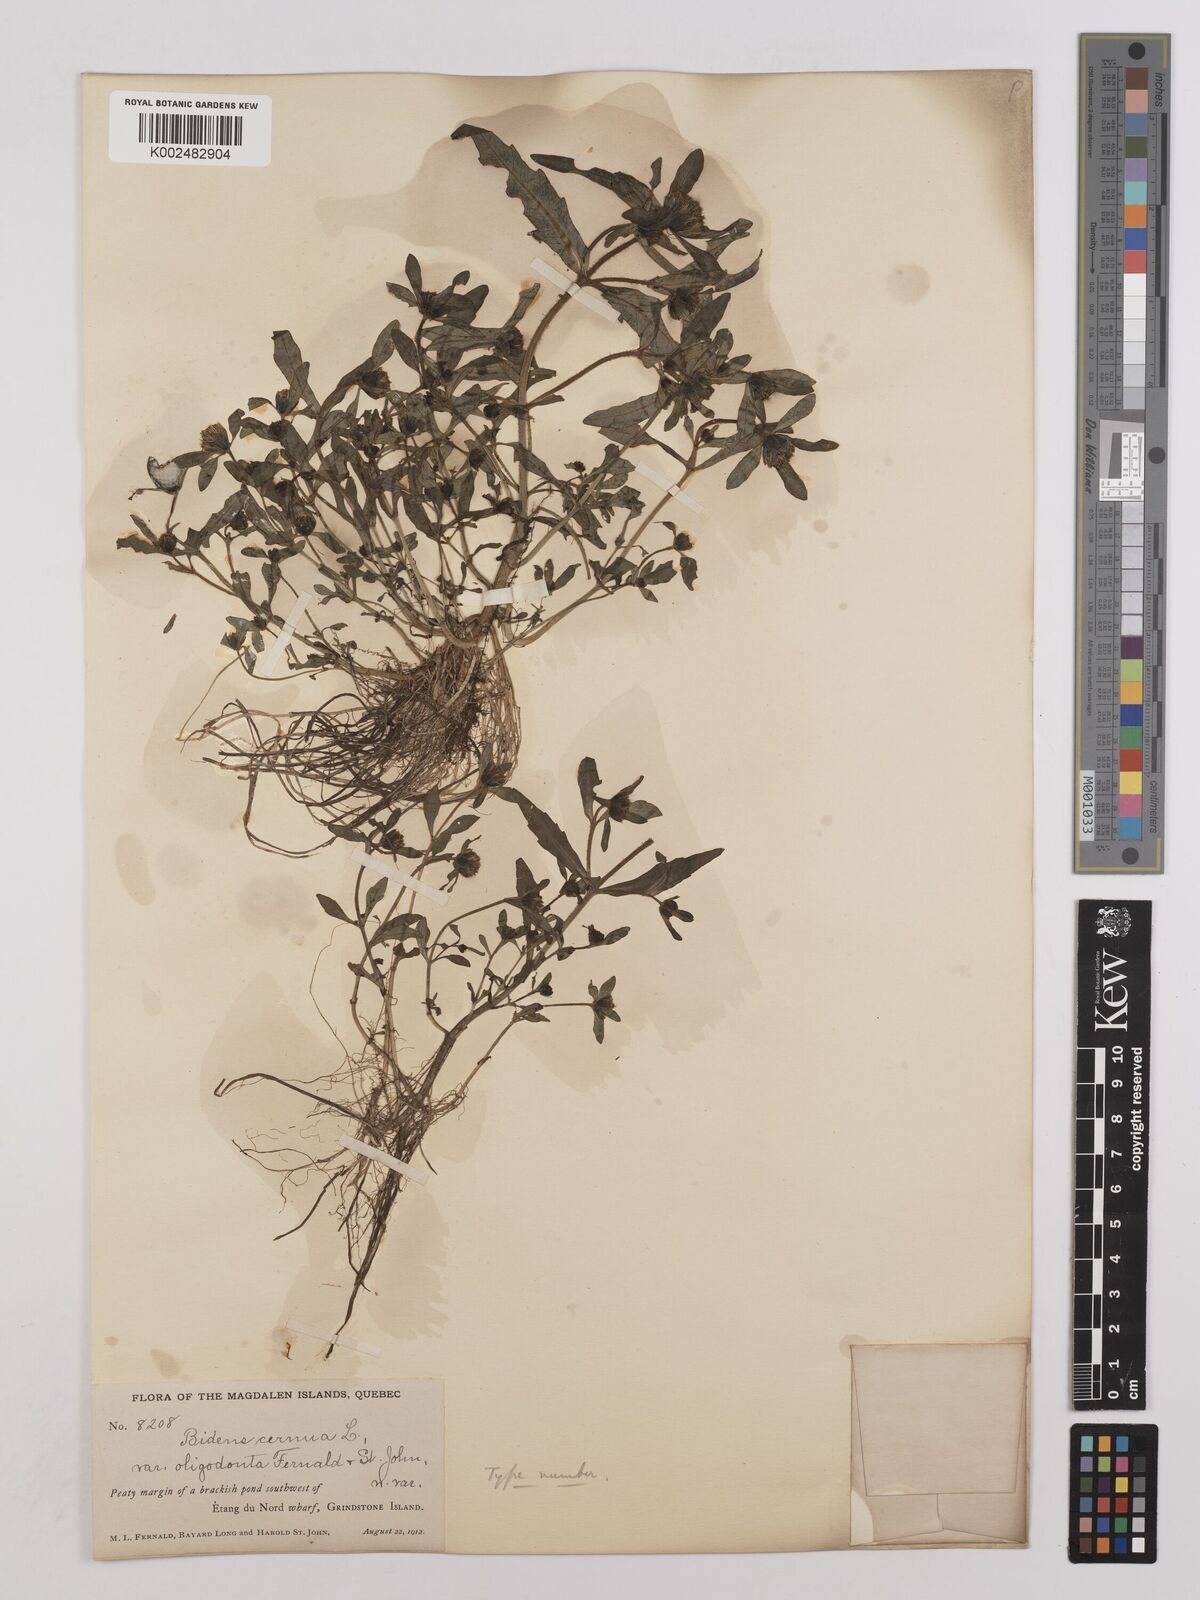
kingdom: Plantae
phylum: Tracheophyta
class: Magnoliopsida
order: Asterales
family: Asteraceae
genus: Bidens
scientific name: Bidens cernua
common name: Nodding bur-marigold
